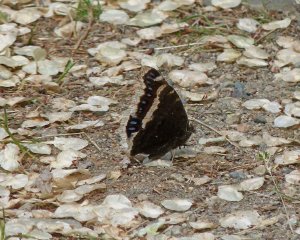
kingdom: Animalia
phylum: Arthropoda
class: Insecta
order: Lepidoptera
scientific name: Lepidoptera
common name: Butterflies
